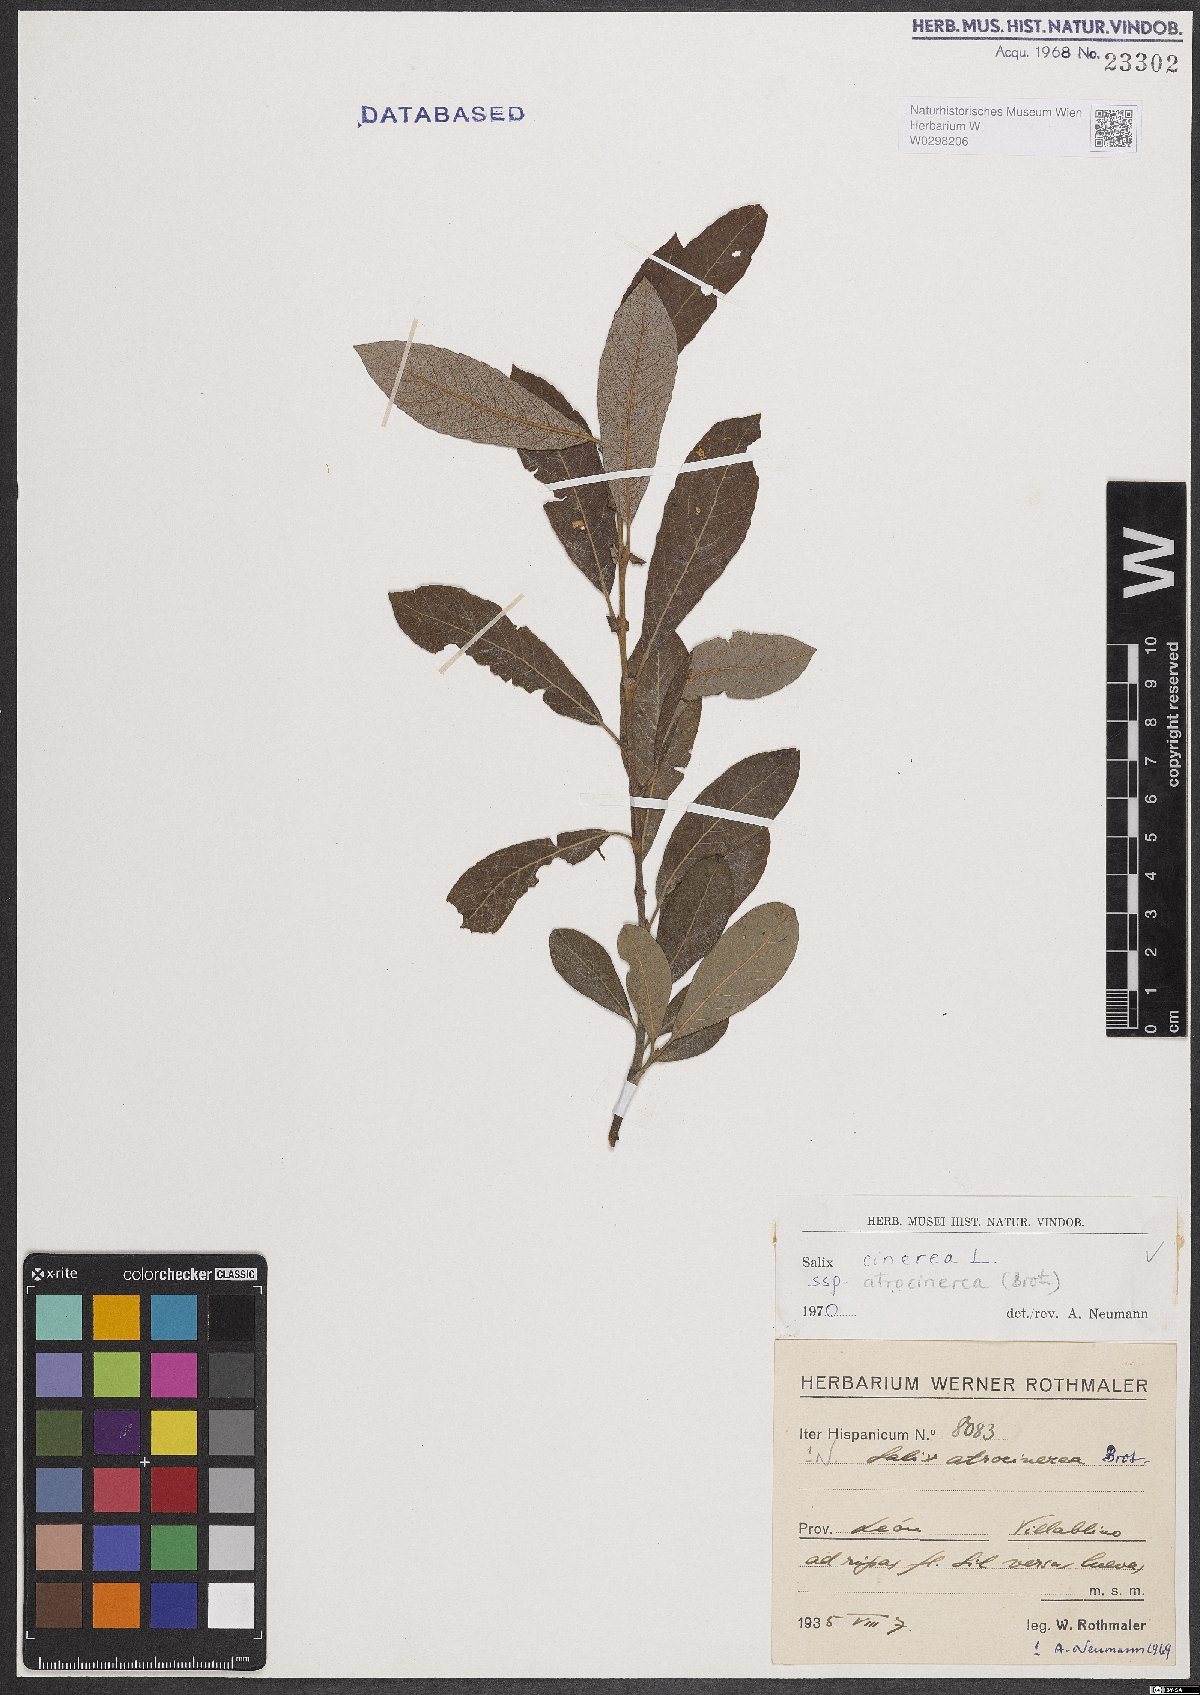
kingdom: Plantae
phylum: Tracheophyta
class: Magnoliopsida
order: Malpighiales
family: Salicaceae
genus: Salix
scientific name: Salix atrocinerea
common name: Rusty willow
